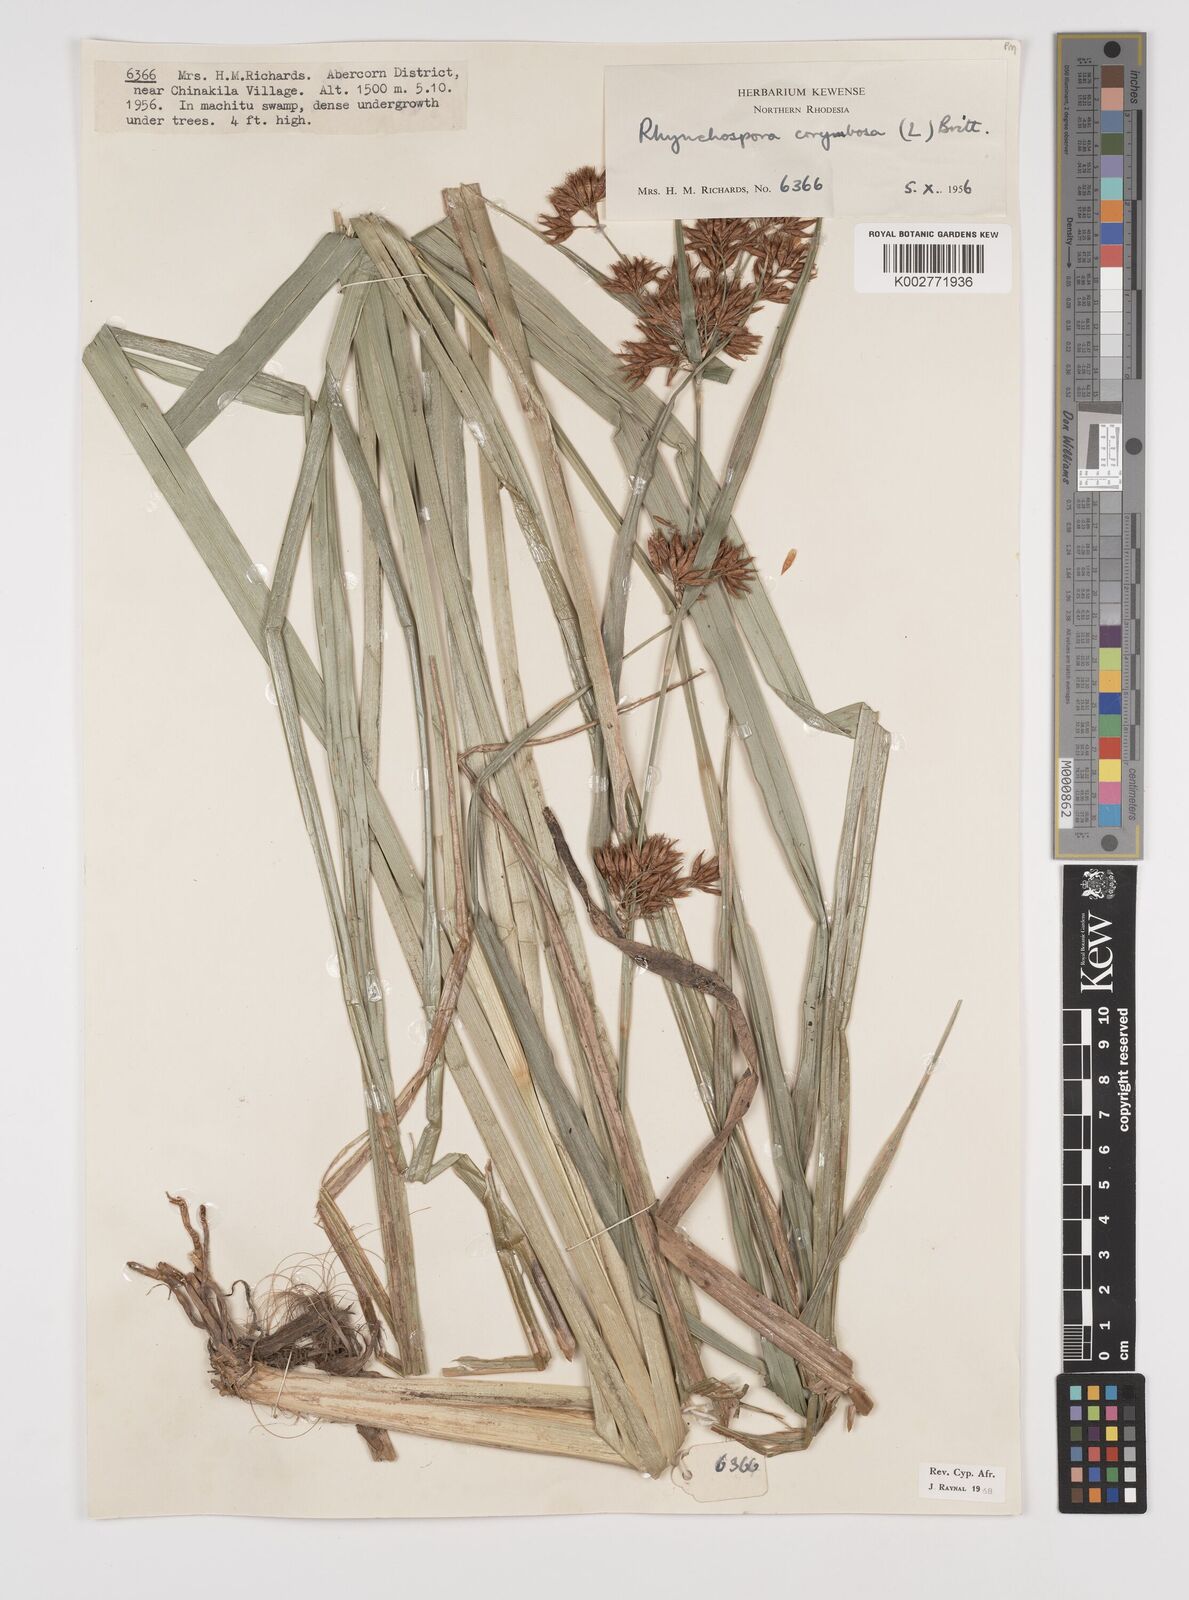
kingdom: Plantae
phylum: Tracheophyta
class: Liliopsida
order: Poales
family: Cyperaceae
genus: Rhynchospora
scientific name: Rhynchospora corymbosa
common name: Golden beak sedge
